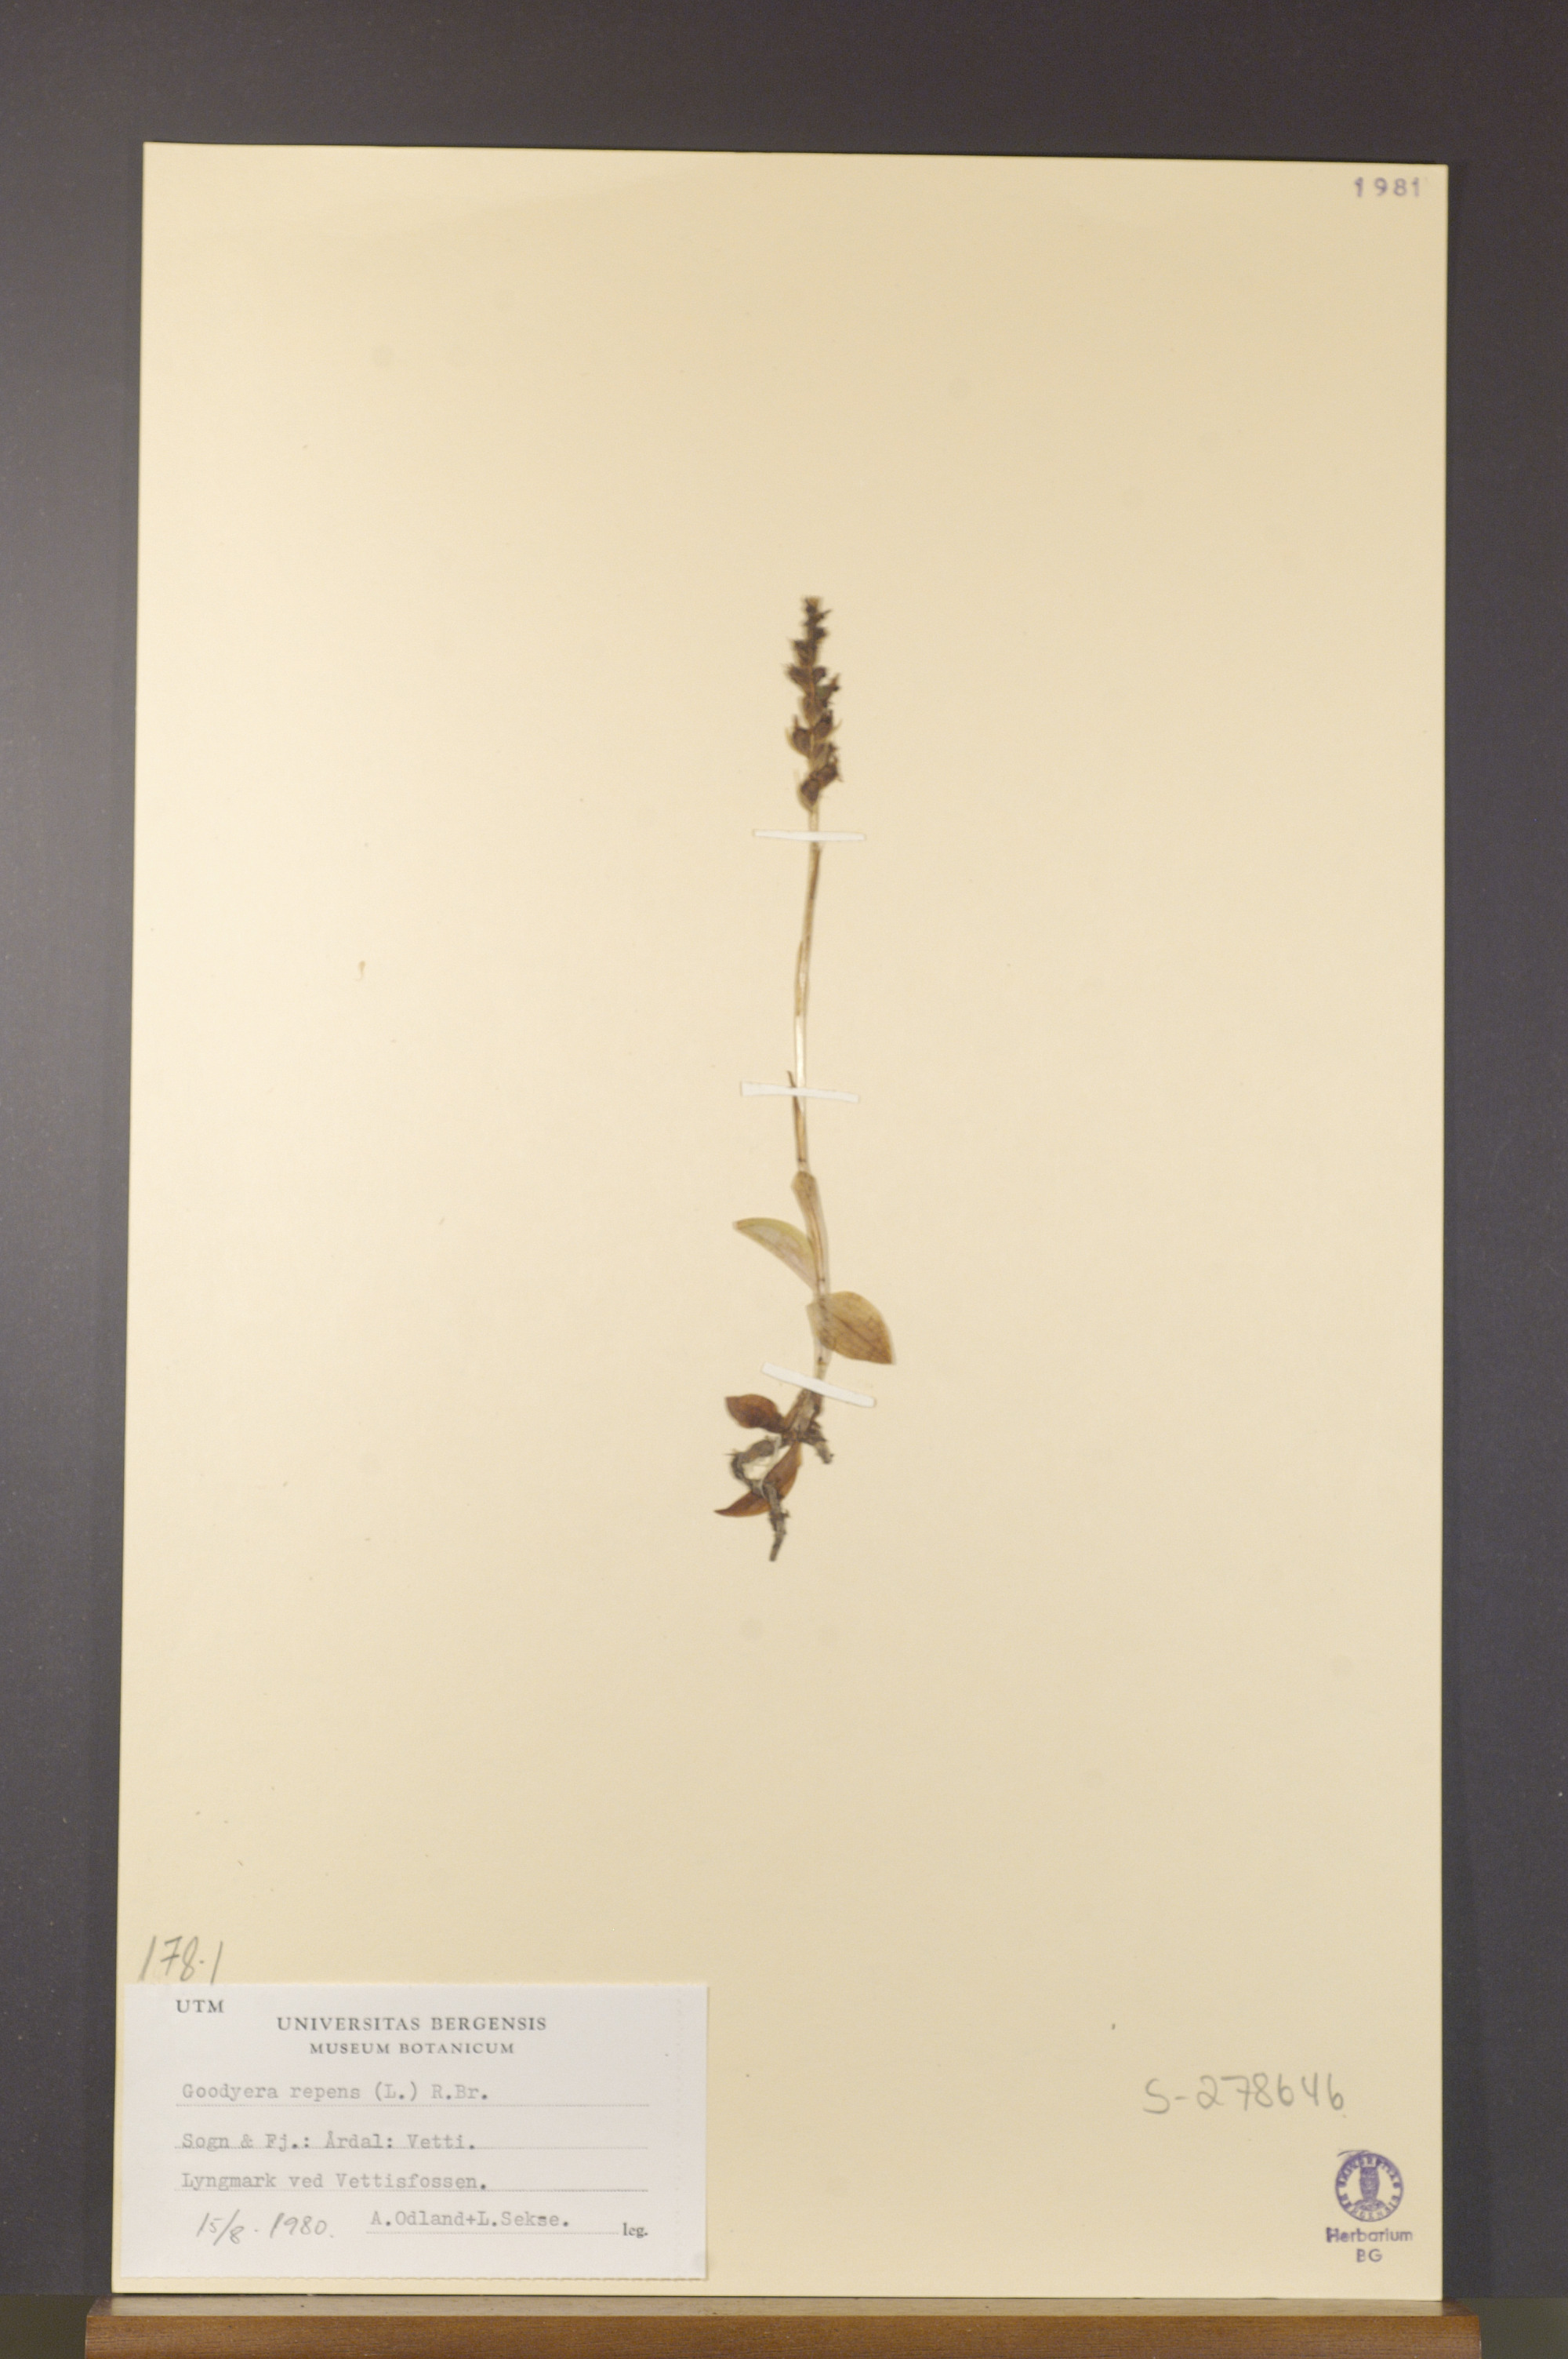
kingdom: Plantae
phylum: Tracheophyta
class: Liliopsida
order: Asparagales
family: Orchidaceae
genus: Goodyera
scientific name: Goodyera repens
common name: Creeping lady's-tresses
